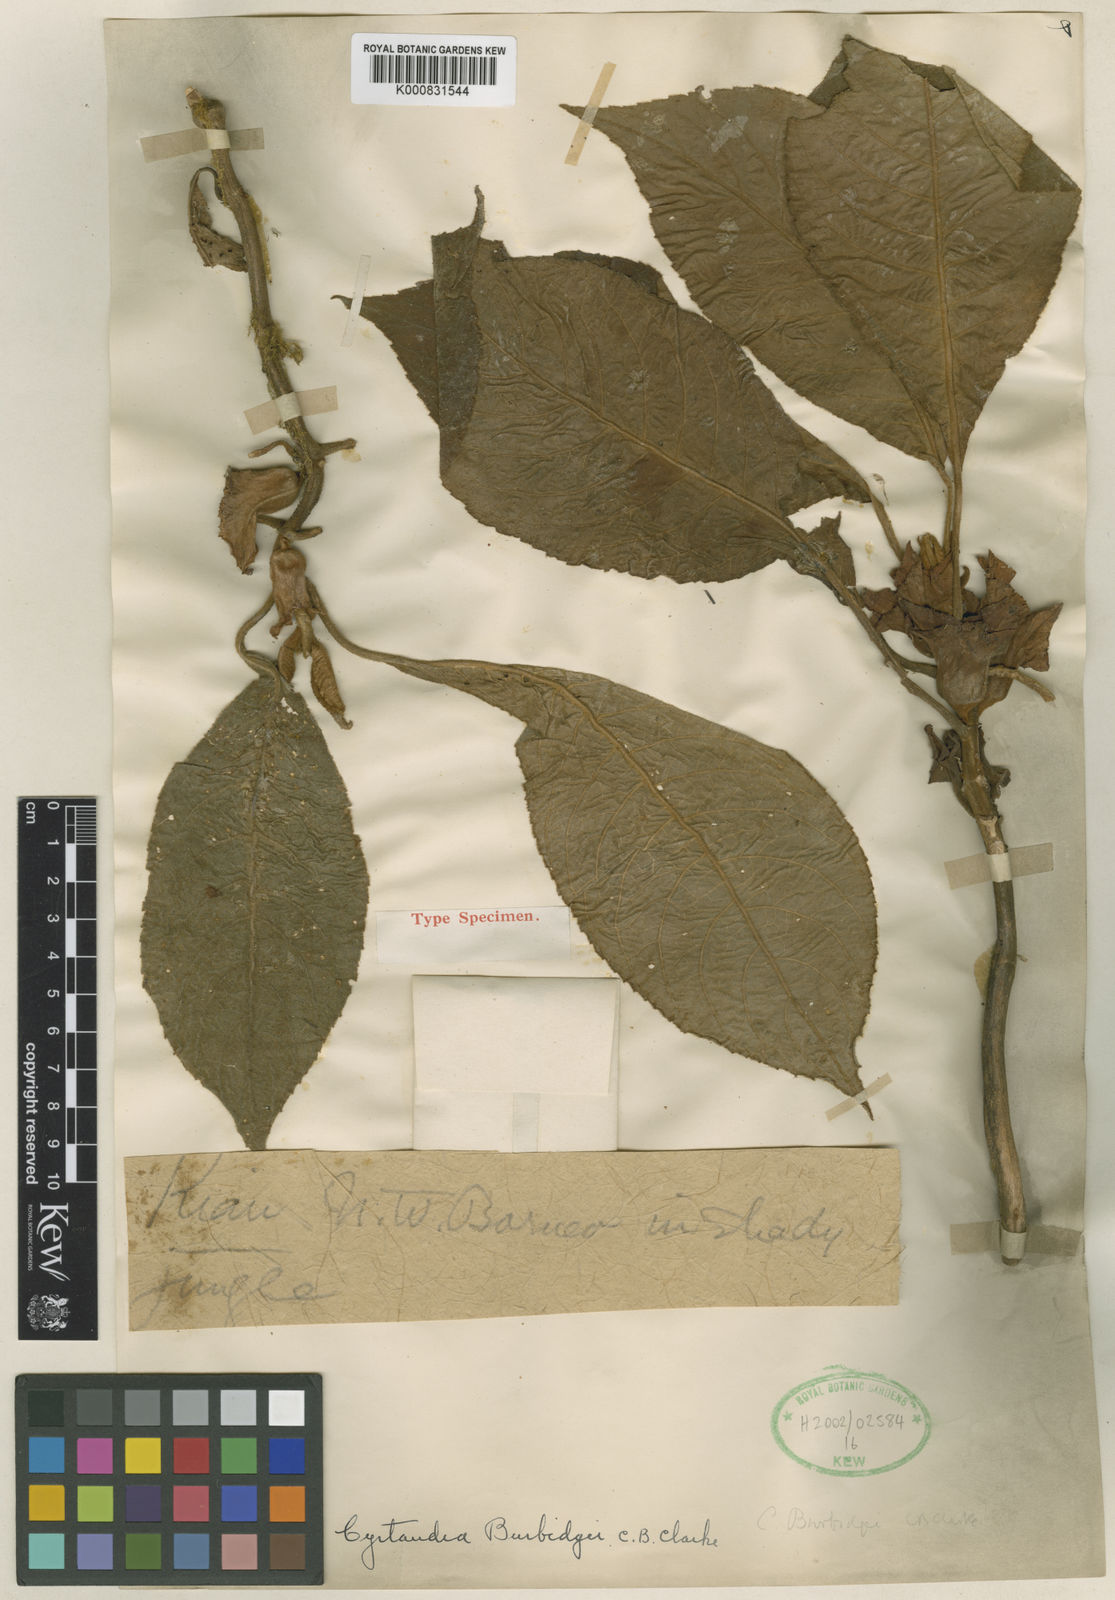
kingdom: Plantae
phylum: Tracheophyta
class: Magnoliopsida
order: Lamiales
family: Gesneriaceae
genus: Cyrtandra
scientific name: Cyrtandra burbidgei
